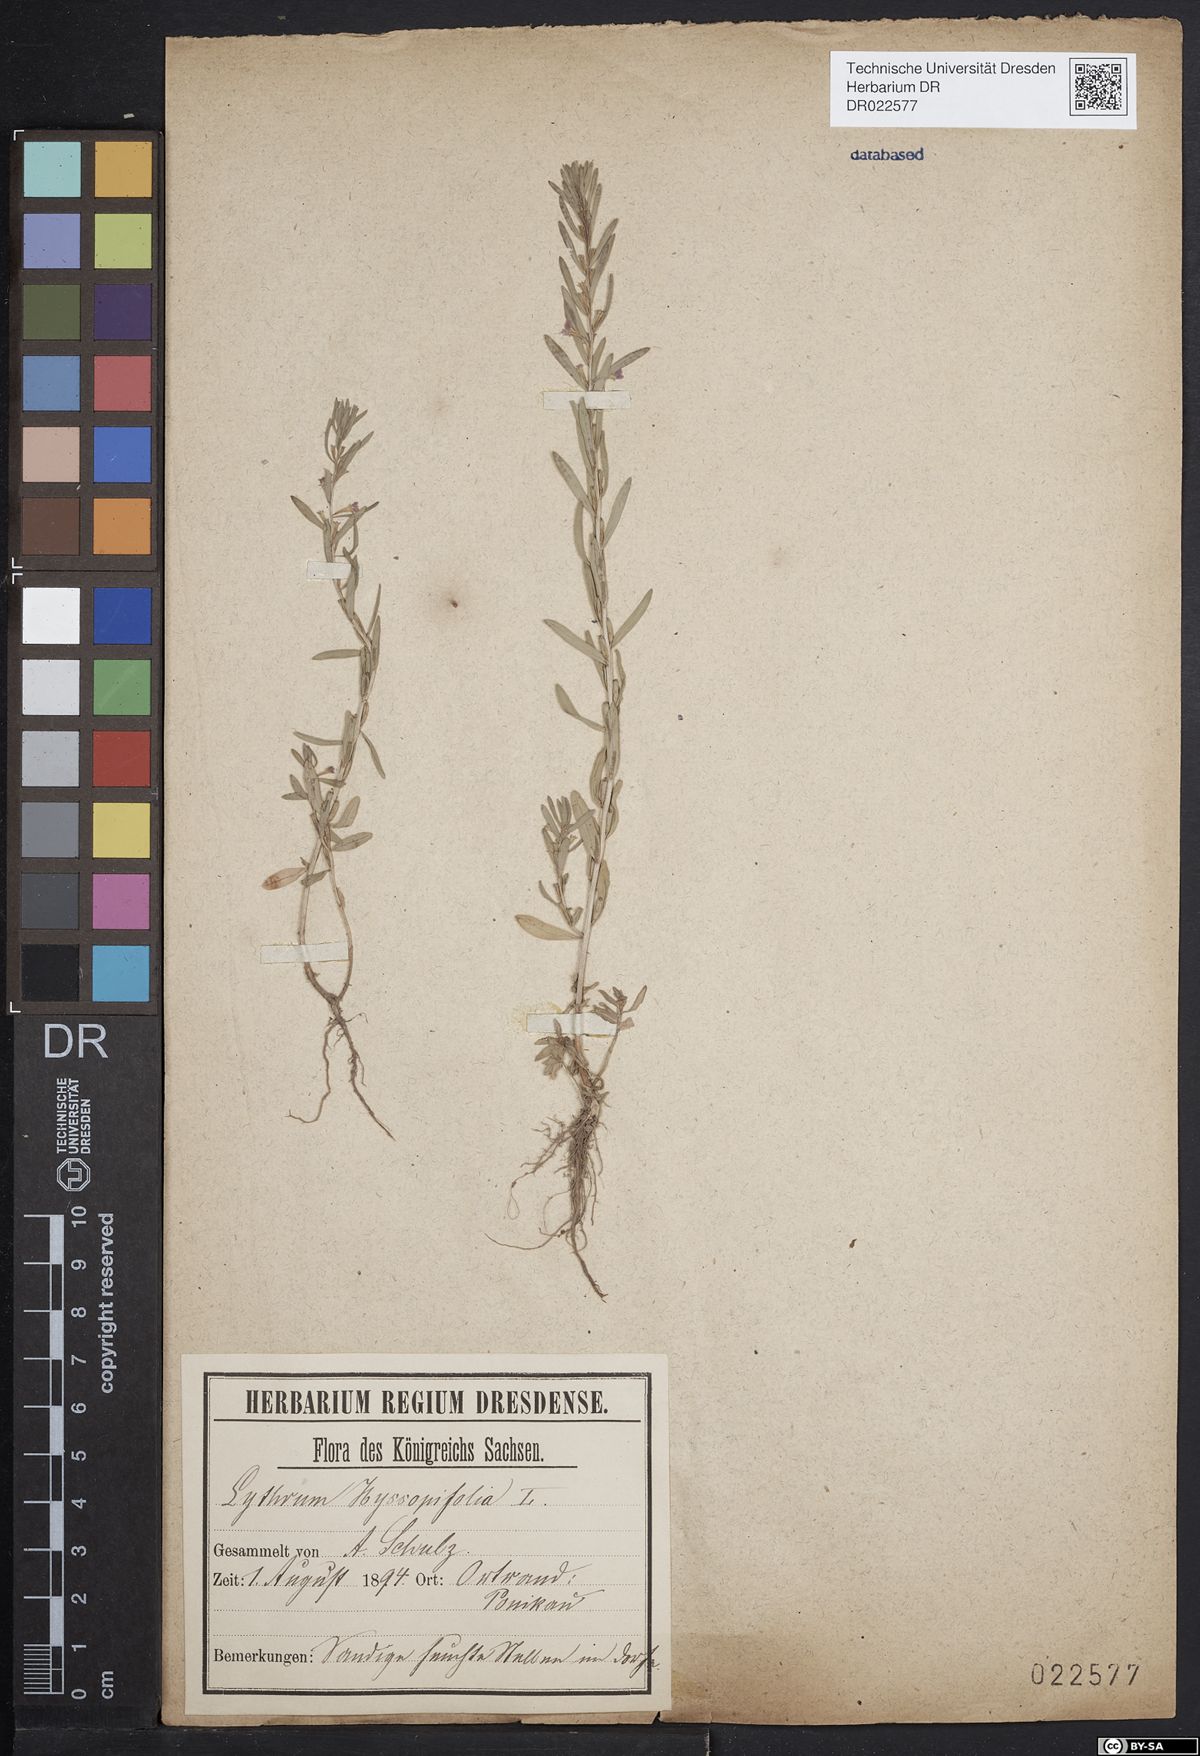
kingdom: Plantae
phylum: Tracheophyta
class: Magnoliopsida
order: Myrtales
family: Lythraceae
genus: Lythrum
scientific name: Lythrum hyssopifolia
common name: Grass-poly
